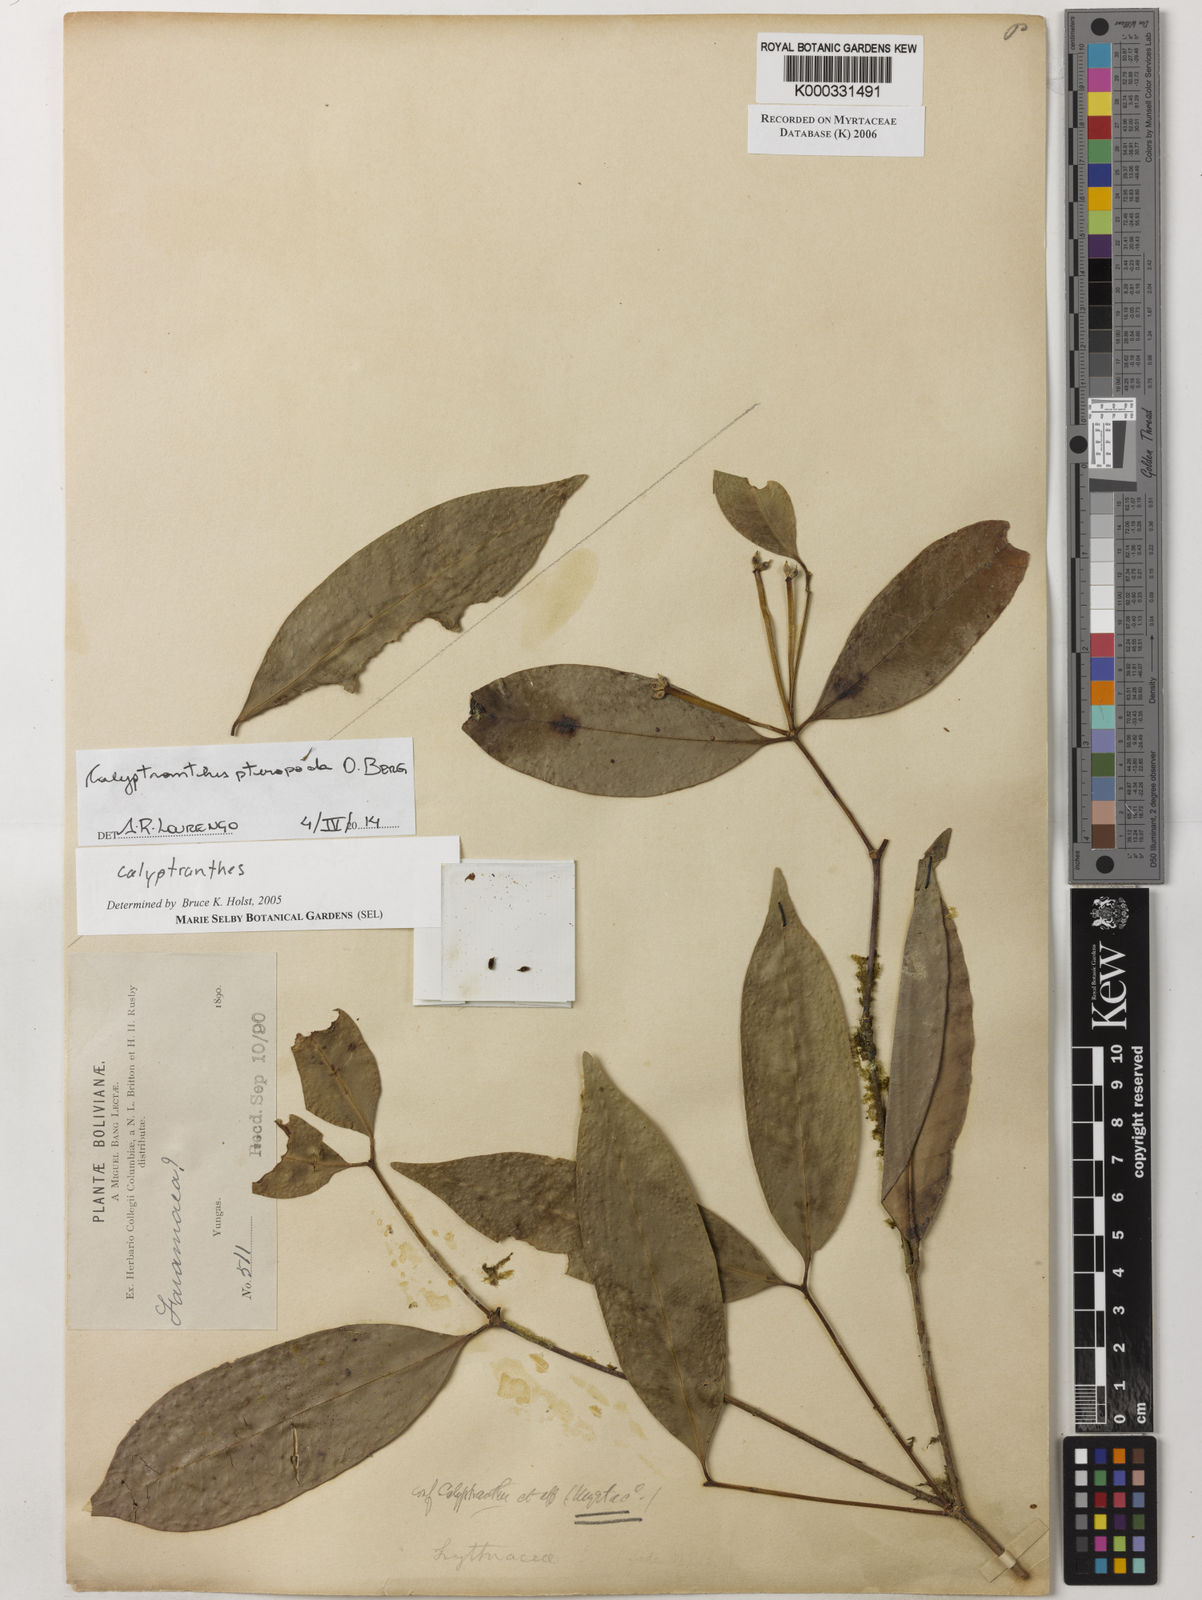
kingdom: Plantae
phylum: Tracheophyta
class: Magnoliopsida
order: Myrtales
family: Myrtaceae
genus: Myrcia
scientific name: Myrcia pteropoda
